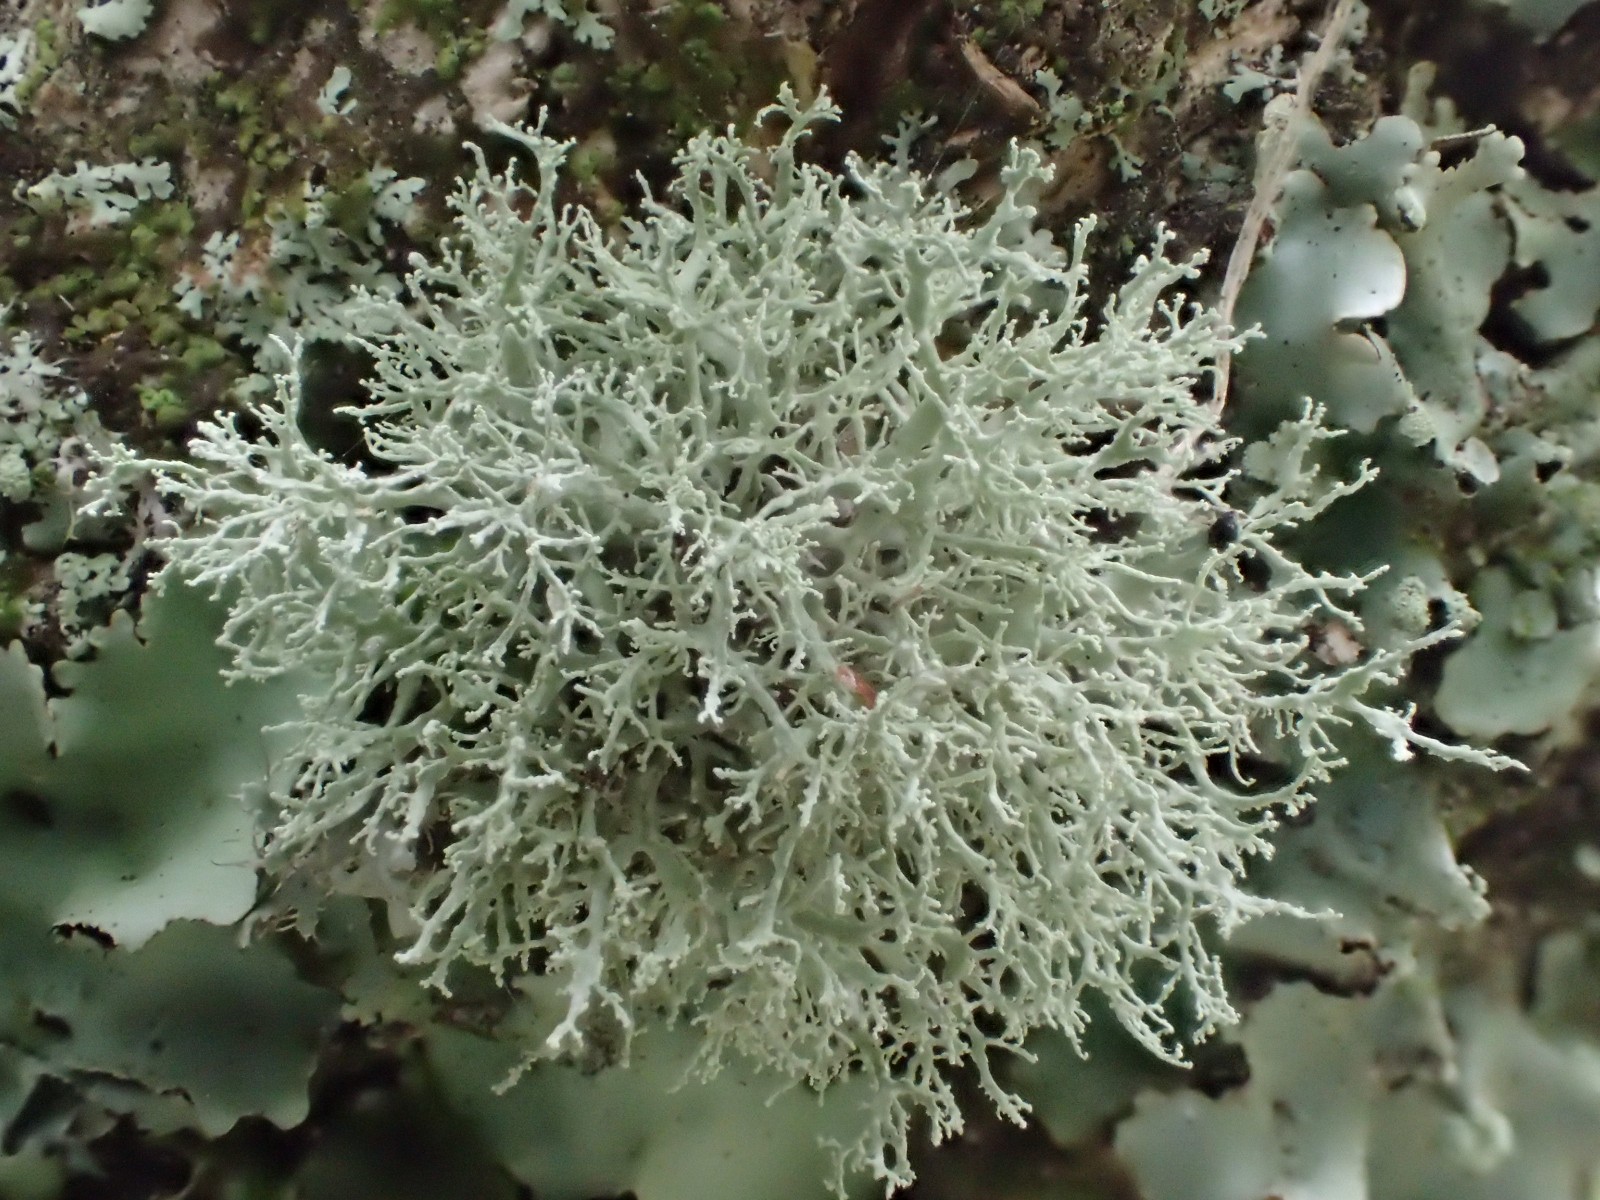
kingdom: Fungi
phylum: Ascomycota
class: Lecanoromycetes
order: Lecanorales
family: Ramalinaceae
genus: Ramalina
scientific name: Ramalina farinacea
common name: melet grenlav
